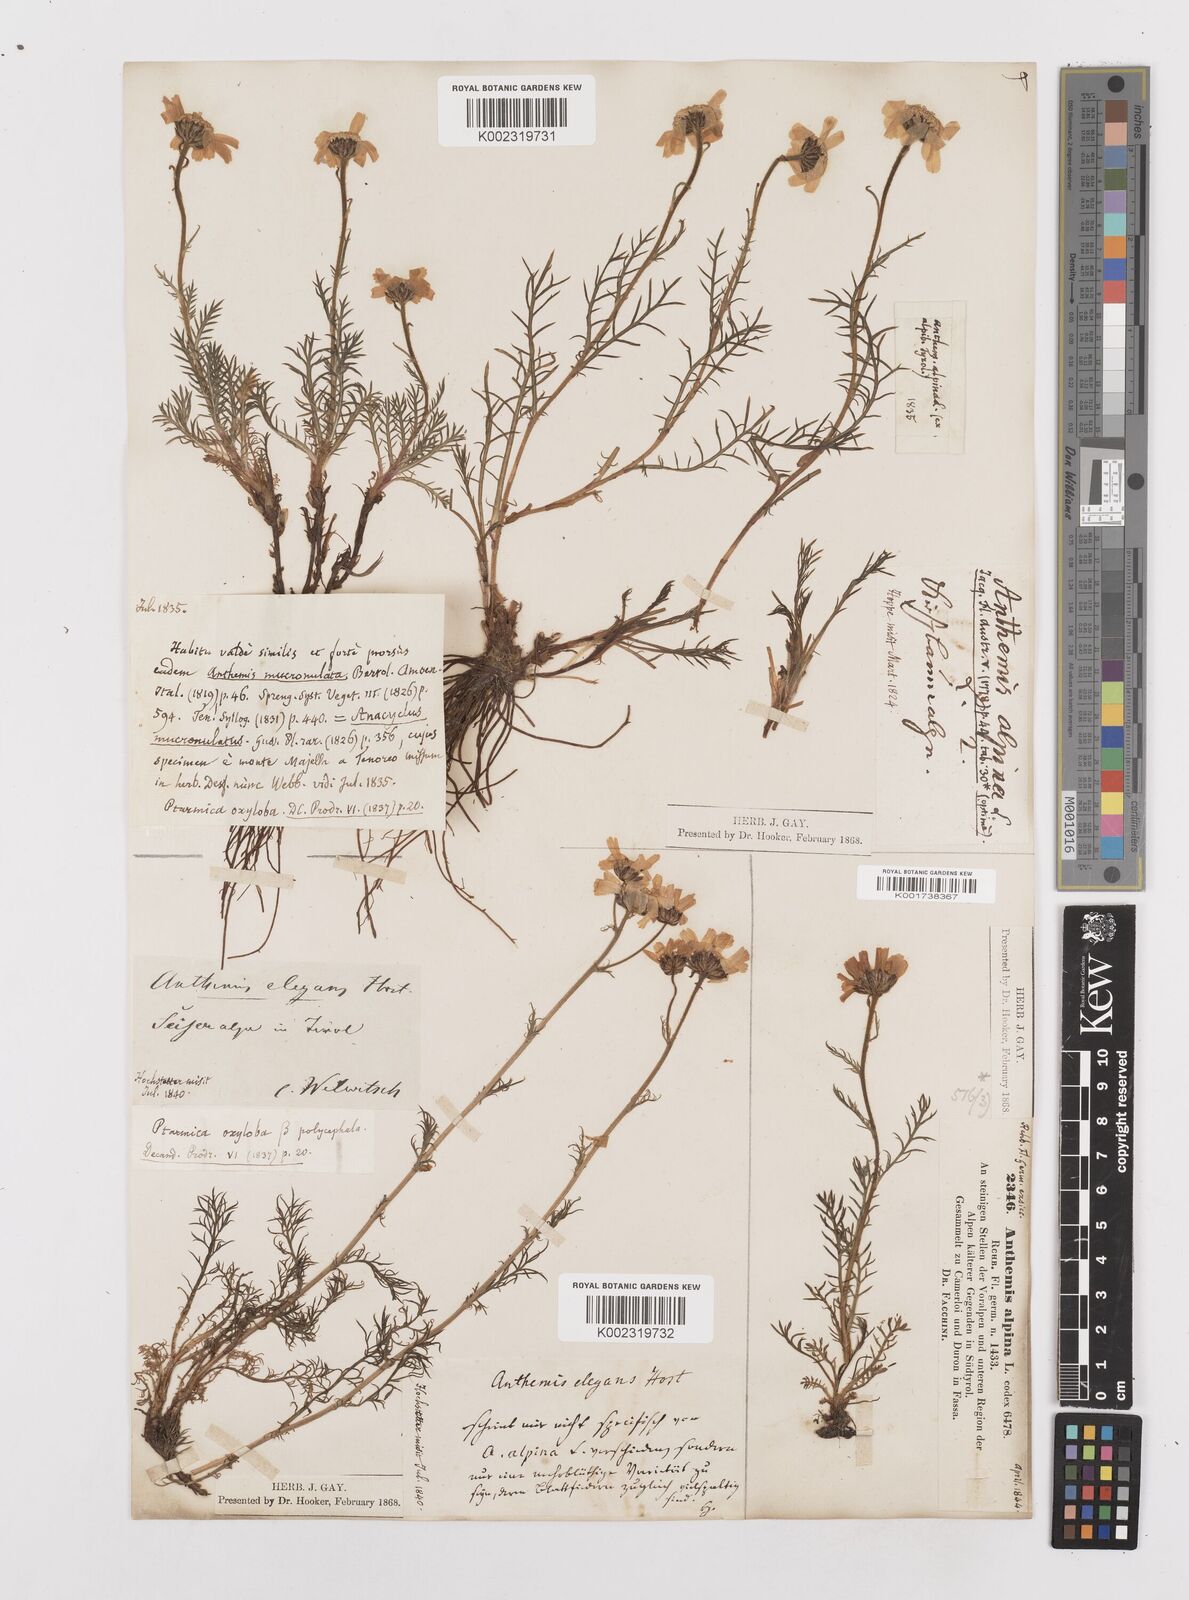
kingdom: Plantae
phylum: Tracheophyta
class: Magnoliopsida
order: Asterales
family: Asteraceae
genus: Achillea
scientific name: Achillea oxyloba
